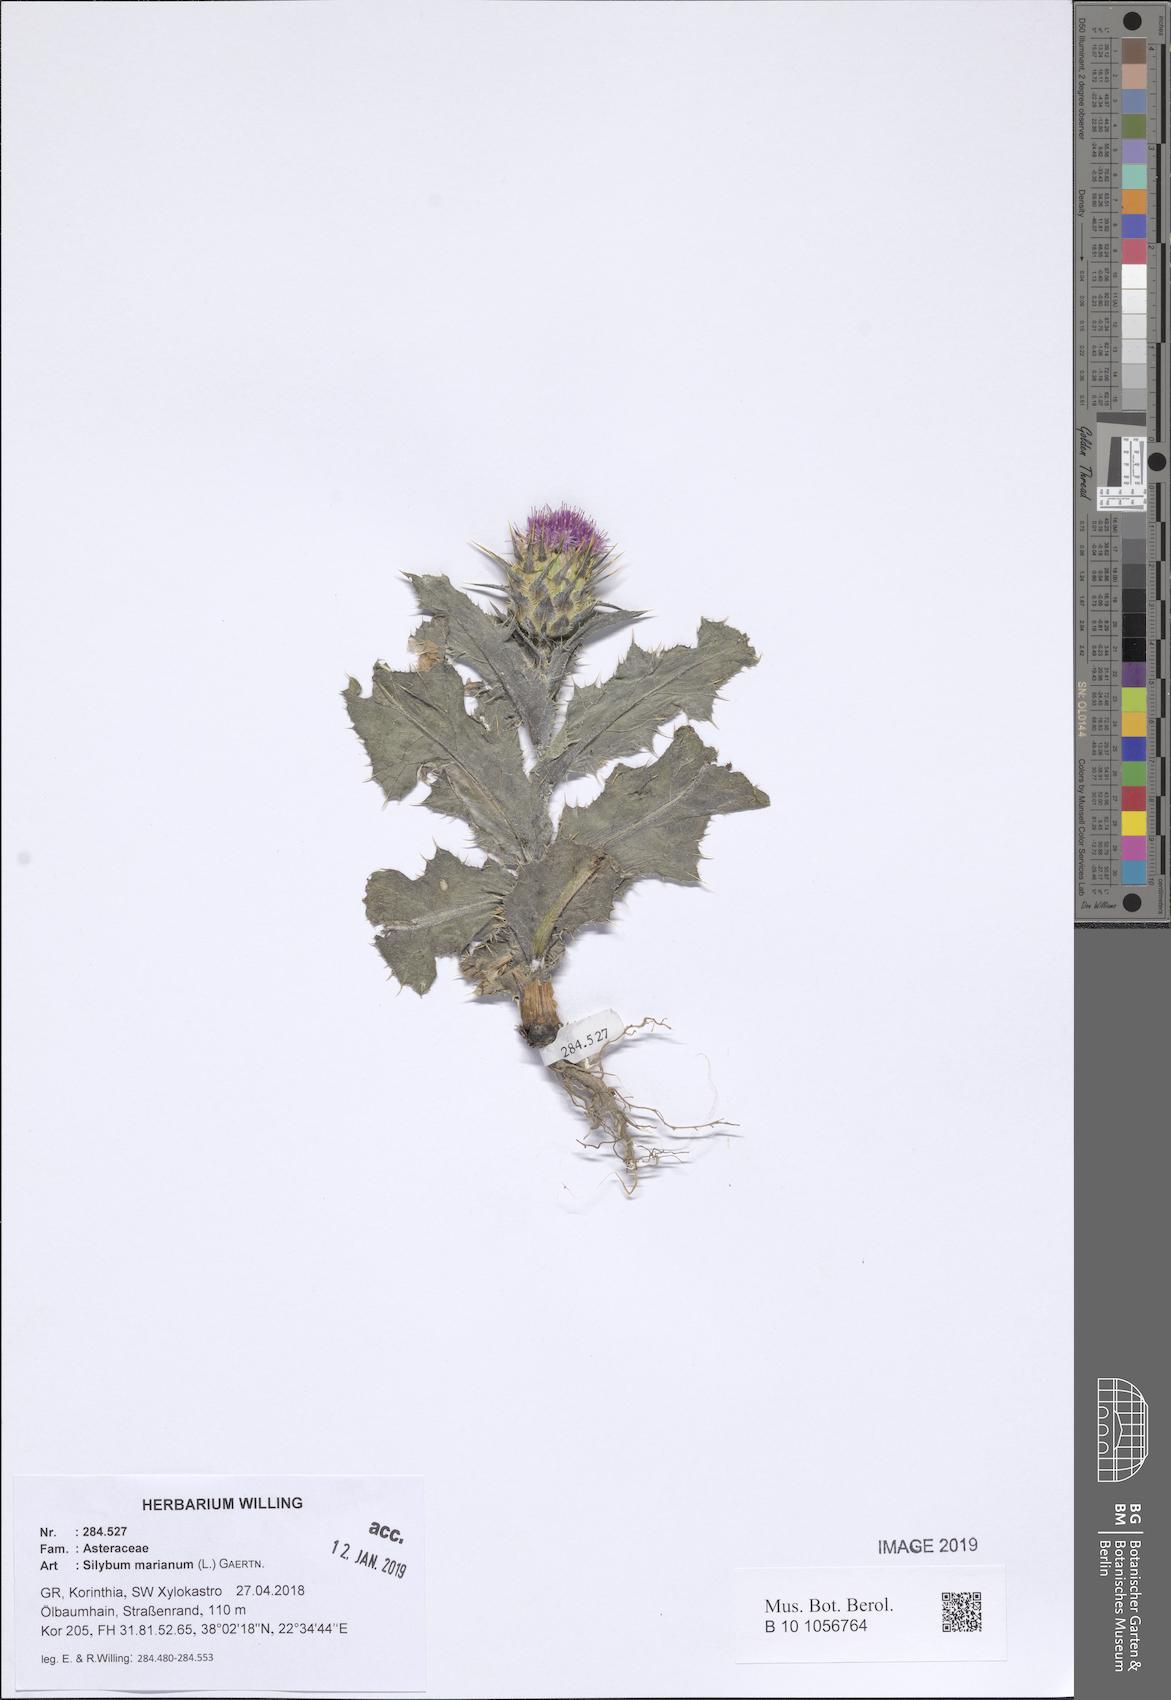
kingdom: Plantae
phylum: Tracheophyta
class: Magnoliopsida
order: Asterales
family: Asteraceae
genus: Silybum
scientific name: Silybum marianum
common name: Milk thistle
